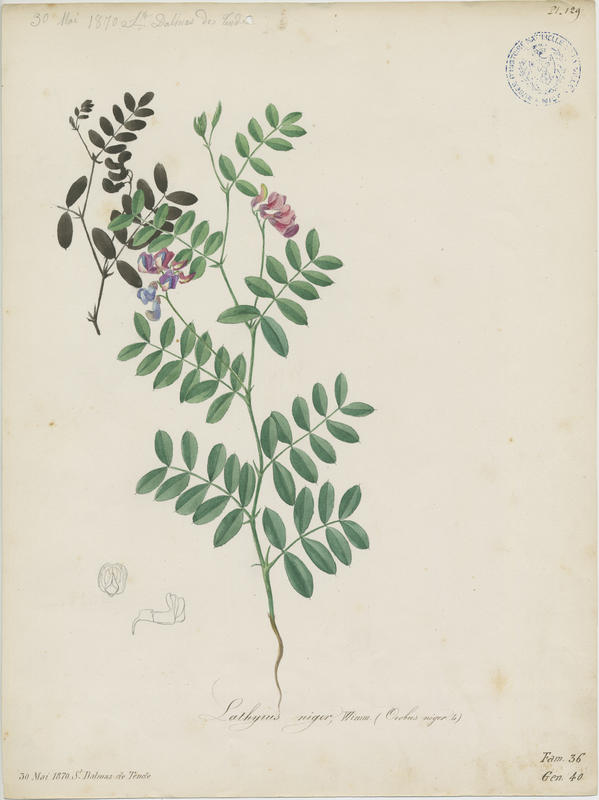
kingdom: Plantae
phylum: Tracheophyta
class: Magnoliopsida
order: Fabales
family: Fabaceae
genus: Lathyrus
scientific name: Lathyrus niger
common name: Black pea
